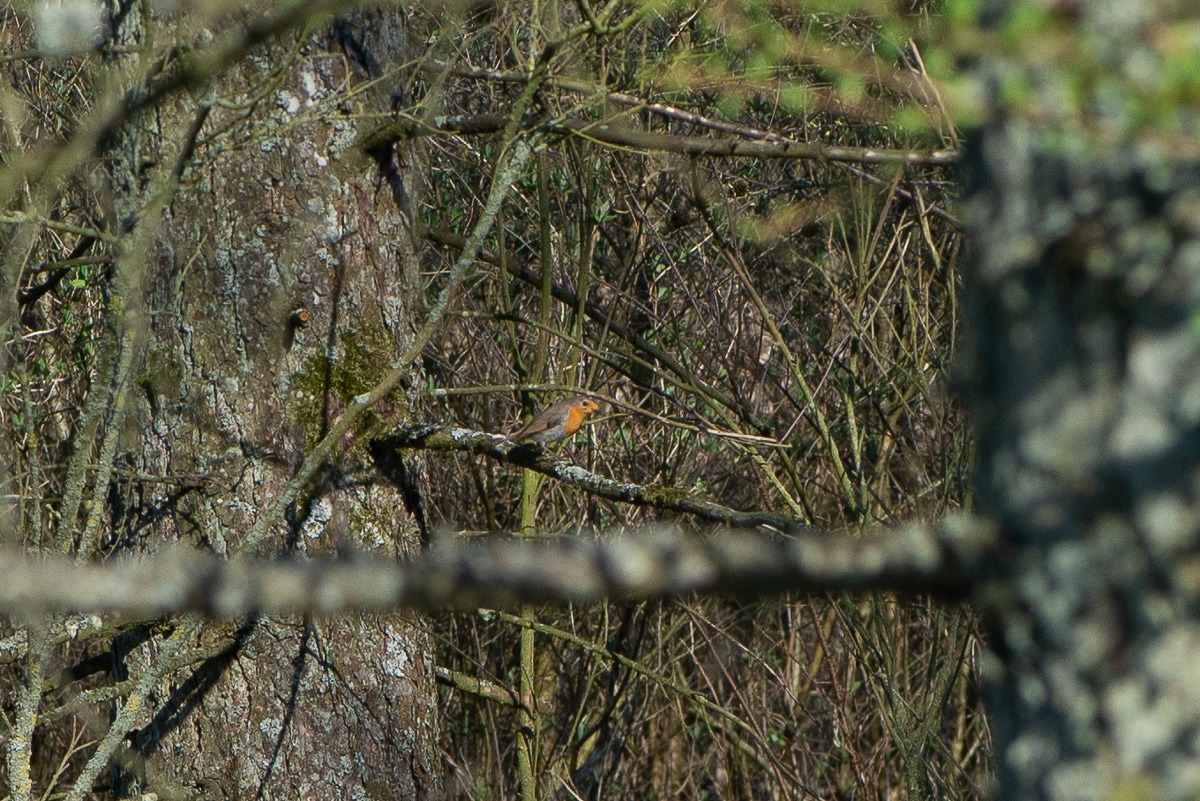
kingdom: Animalia
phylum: Chordata
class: Aves
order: Passeriformes
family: Muscicapidae
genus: Erithacus
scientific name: Erithacus rubecula
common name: Rødhals/rødkælk
